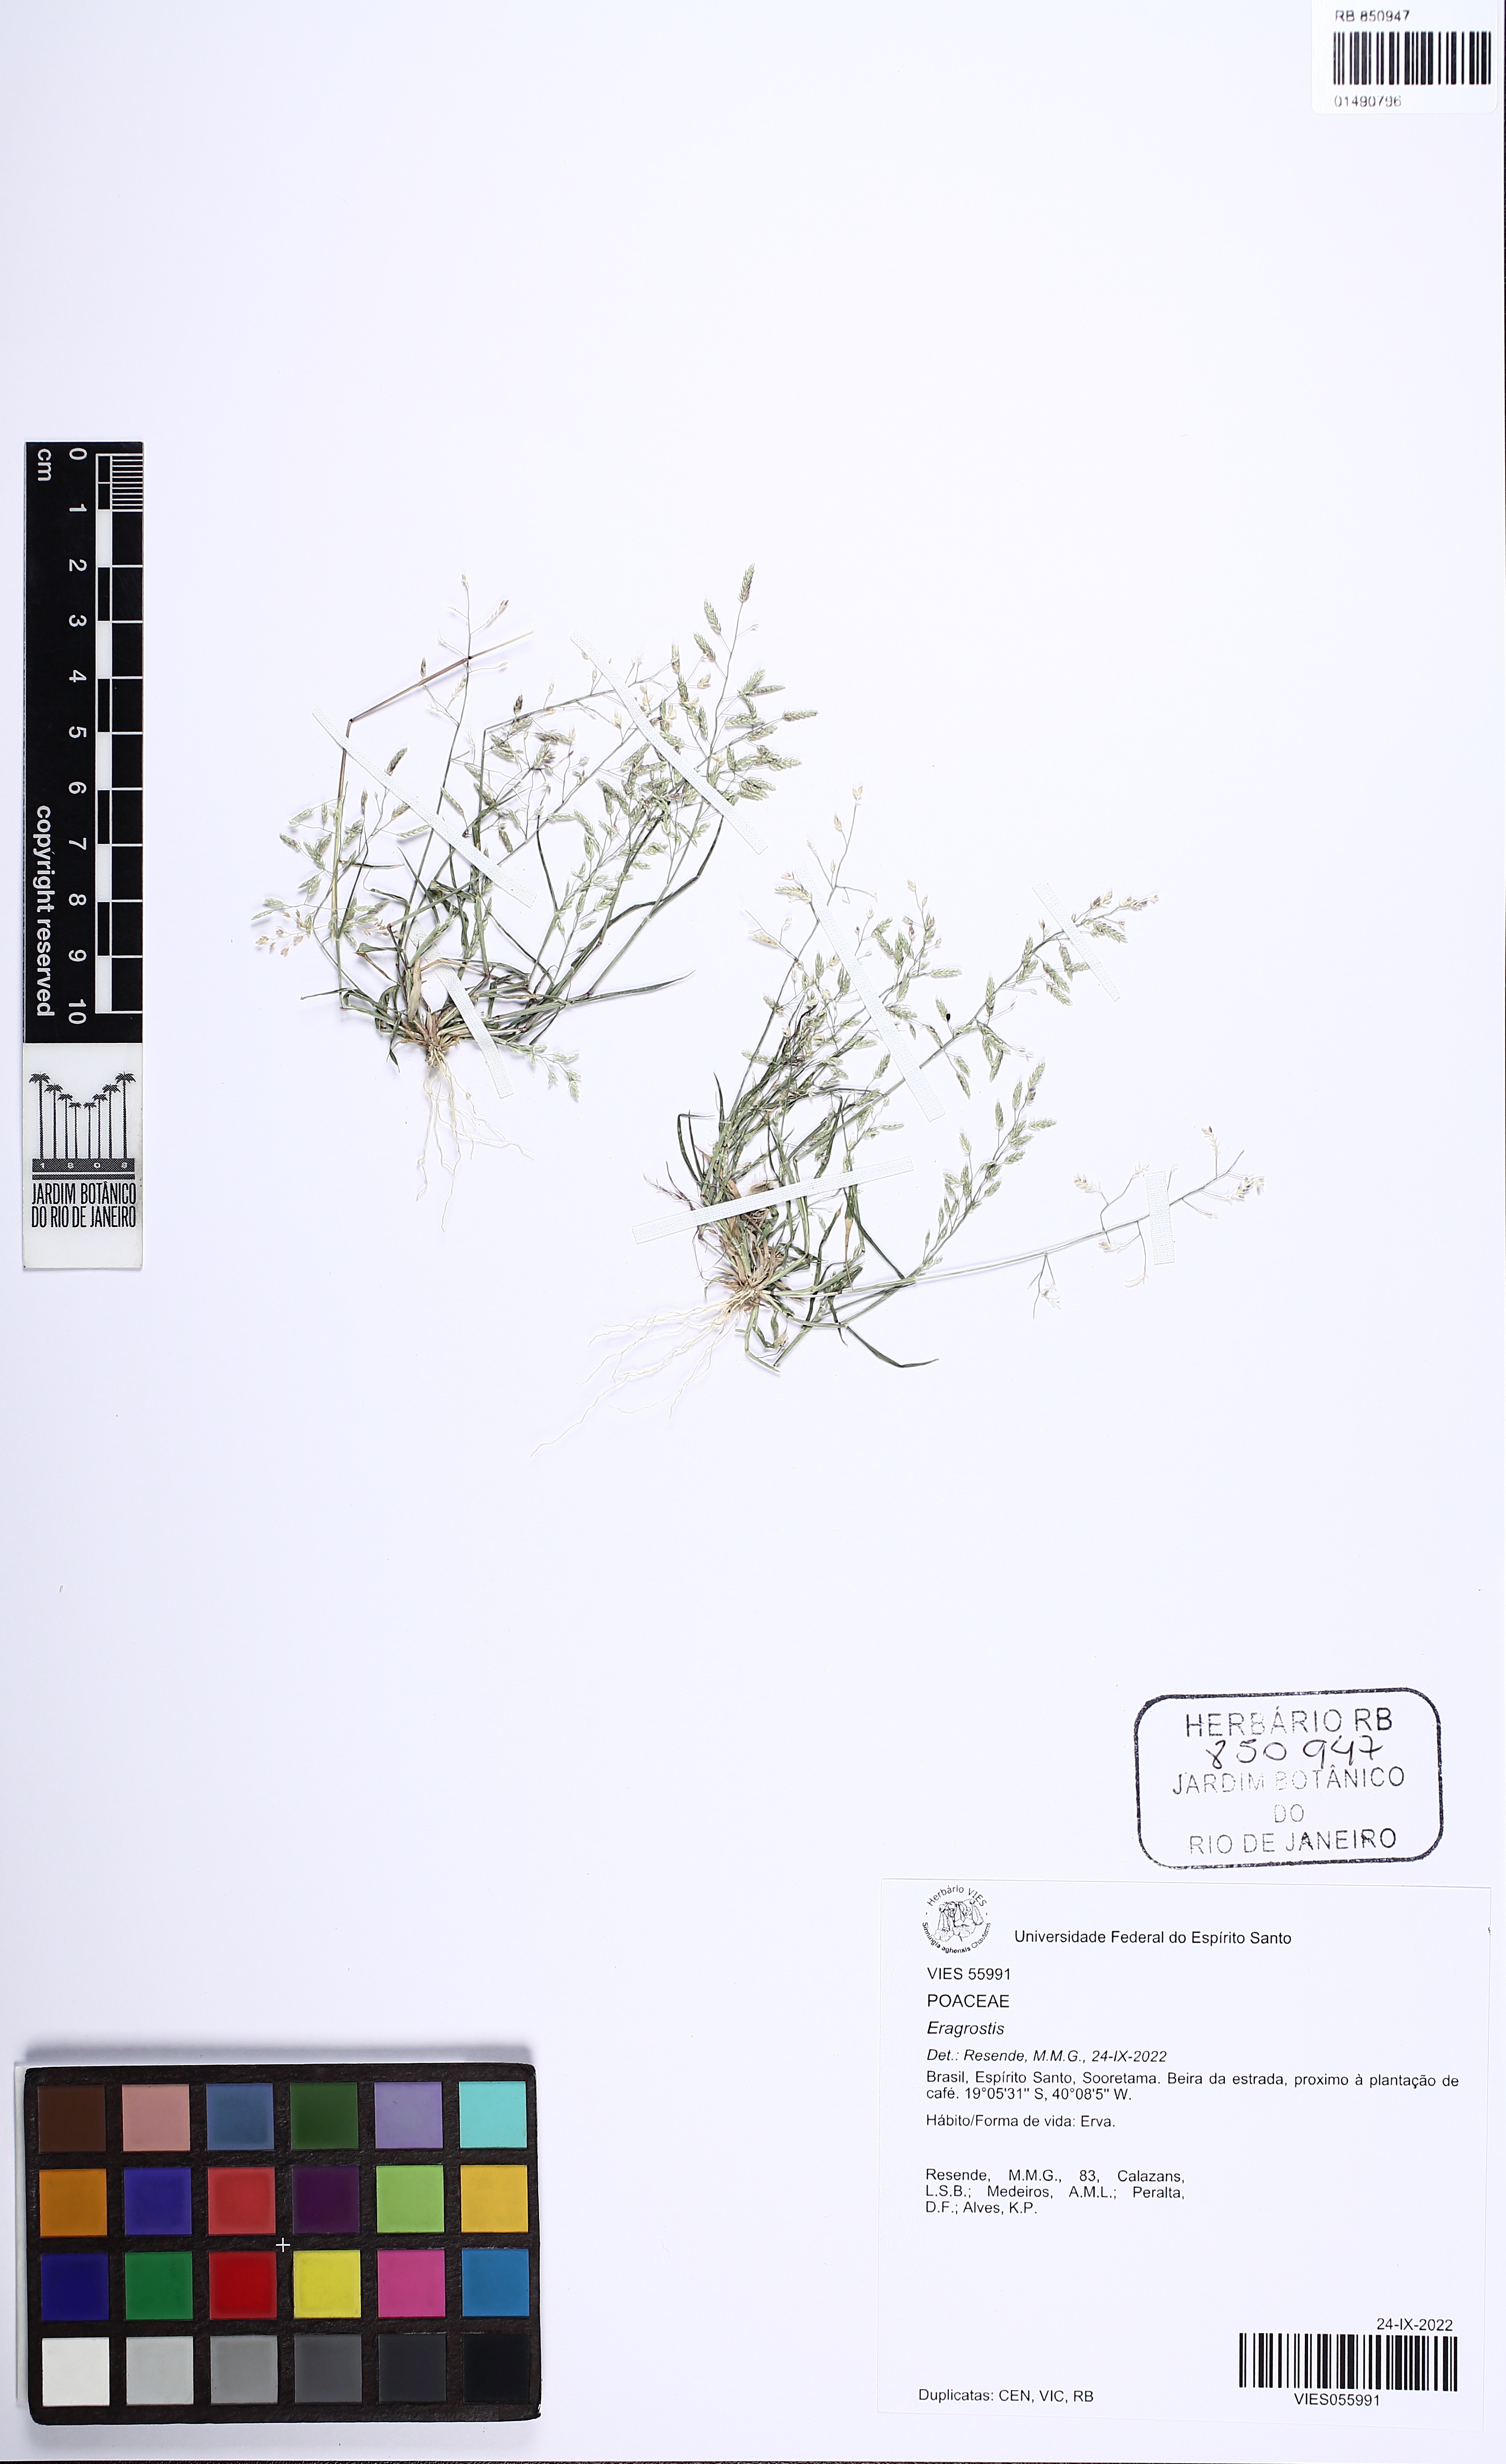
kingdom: Plantae
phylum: Tracheophyta
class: Liliopsida
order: Poales
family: Poaceae
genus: Eragrostis
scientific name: Eragrostis
